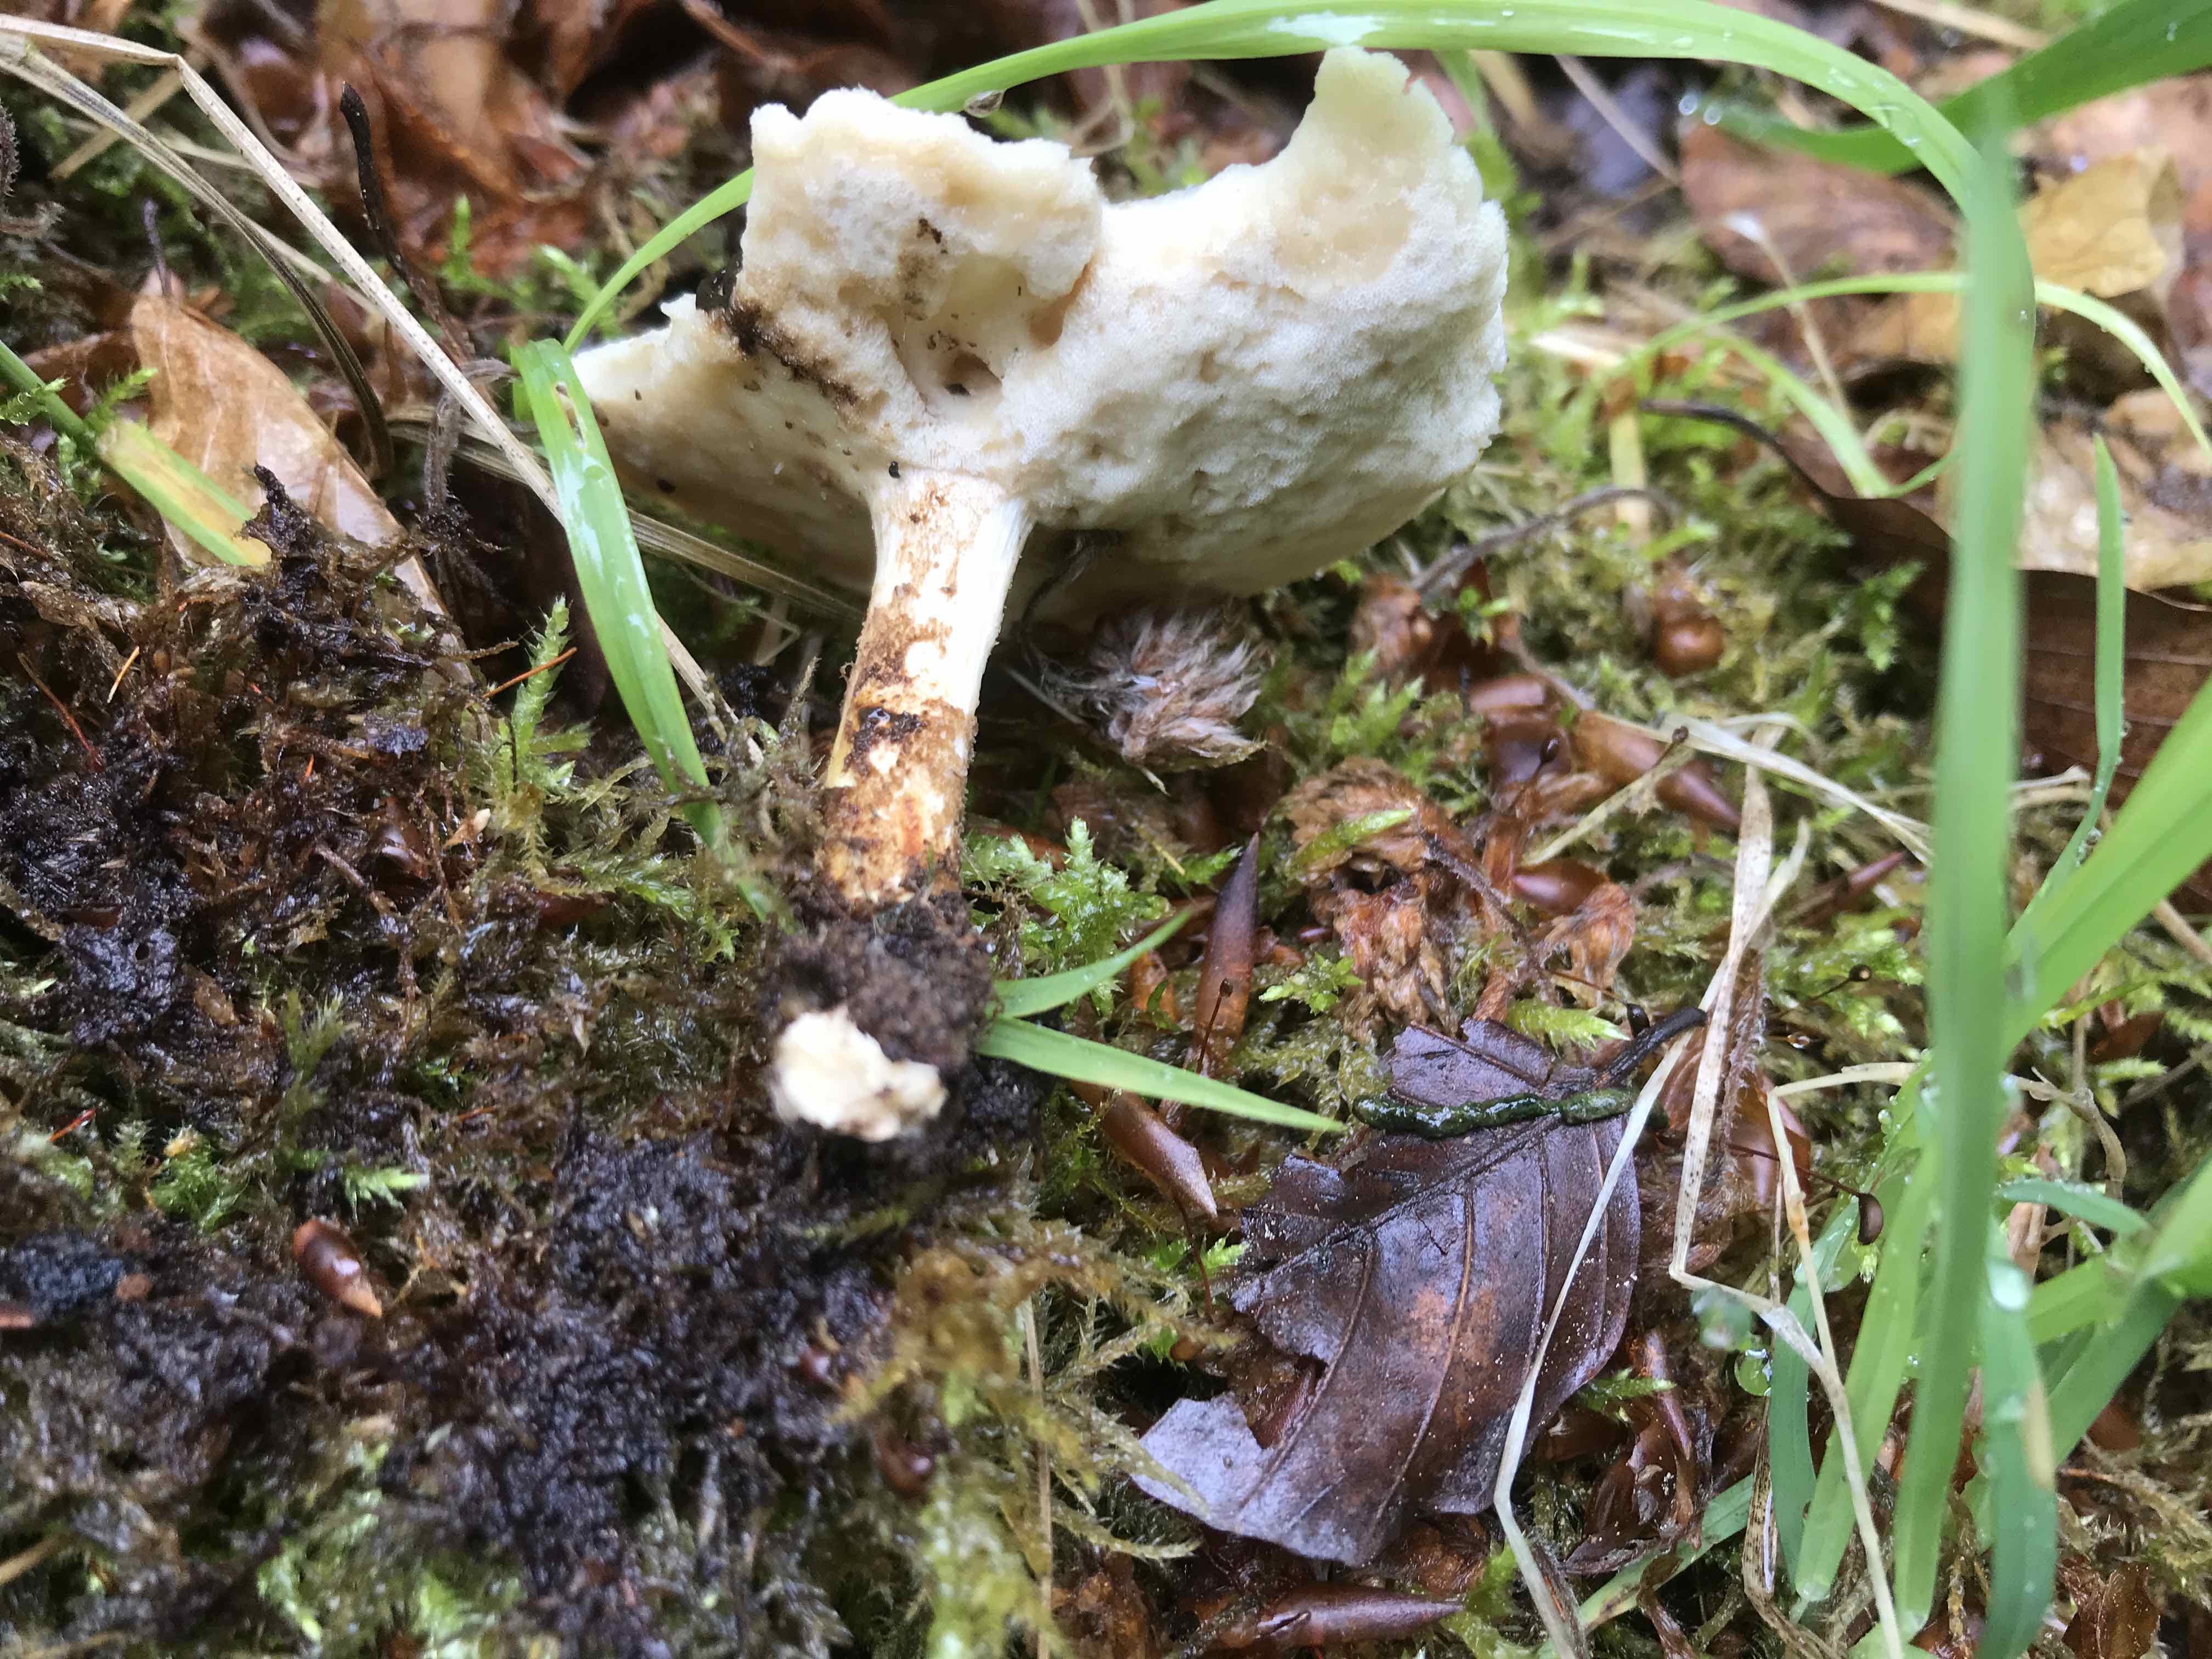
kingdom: Fungi
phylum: Basidiomycota
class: Agaricomycetes
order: Polyporales
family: Polyporaceae
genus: Lentinus
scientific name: Lentinus substrictus
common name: forårs-stilkporesvamp
